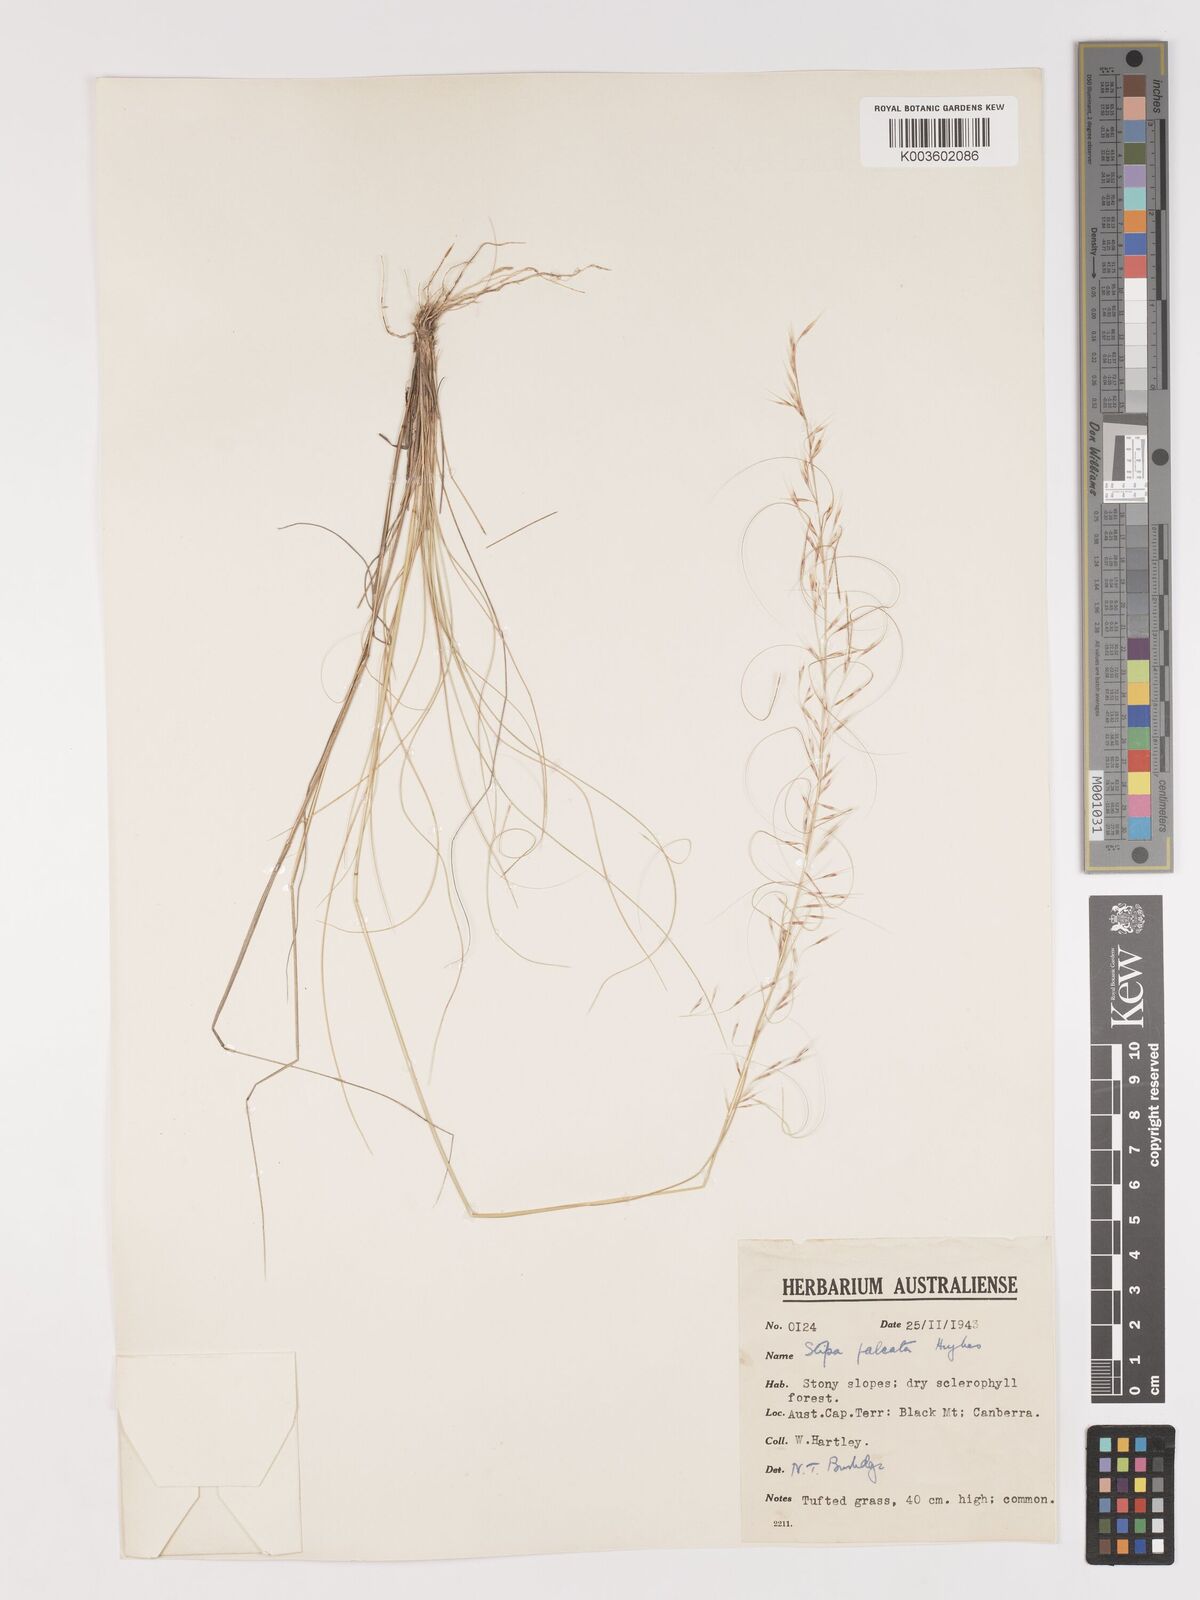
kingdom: Plantae
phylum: Tracheophyta
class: Liliopsida
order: Poales
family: Poaceae
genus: Austrostipa
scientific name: Austrostipa scabra
